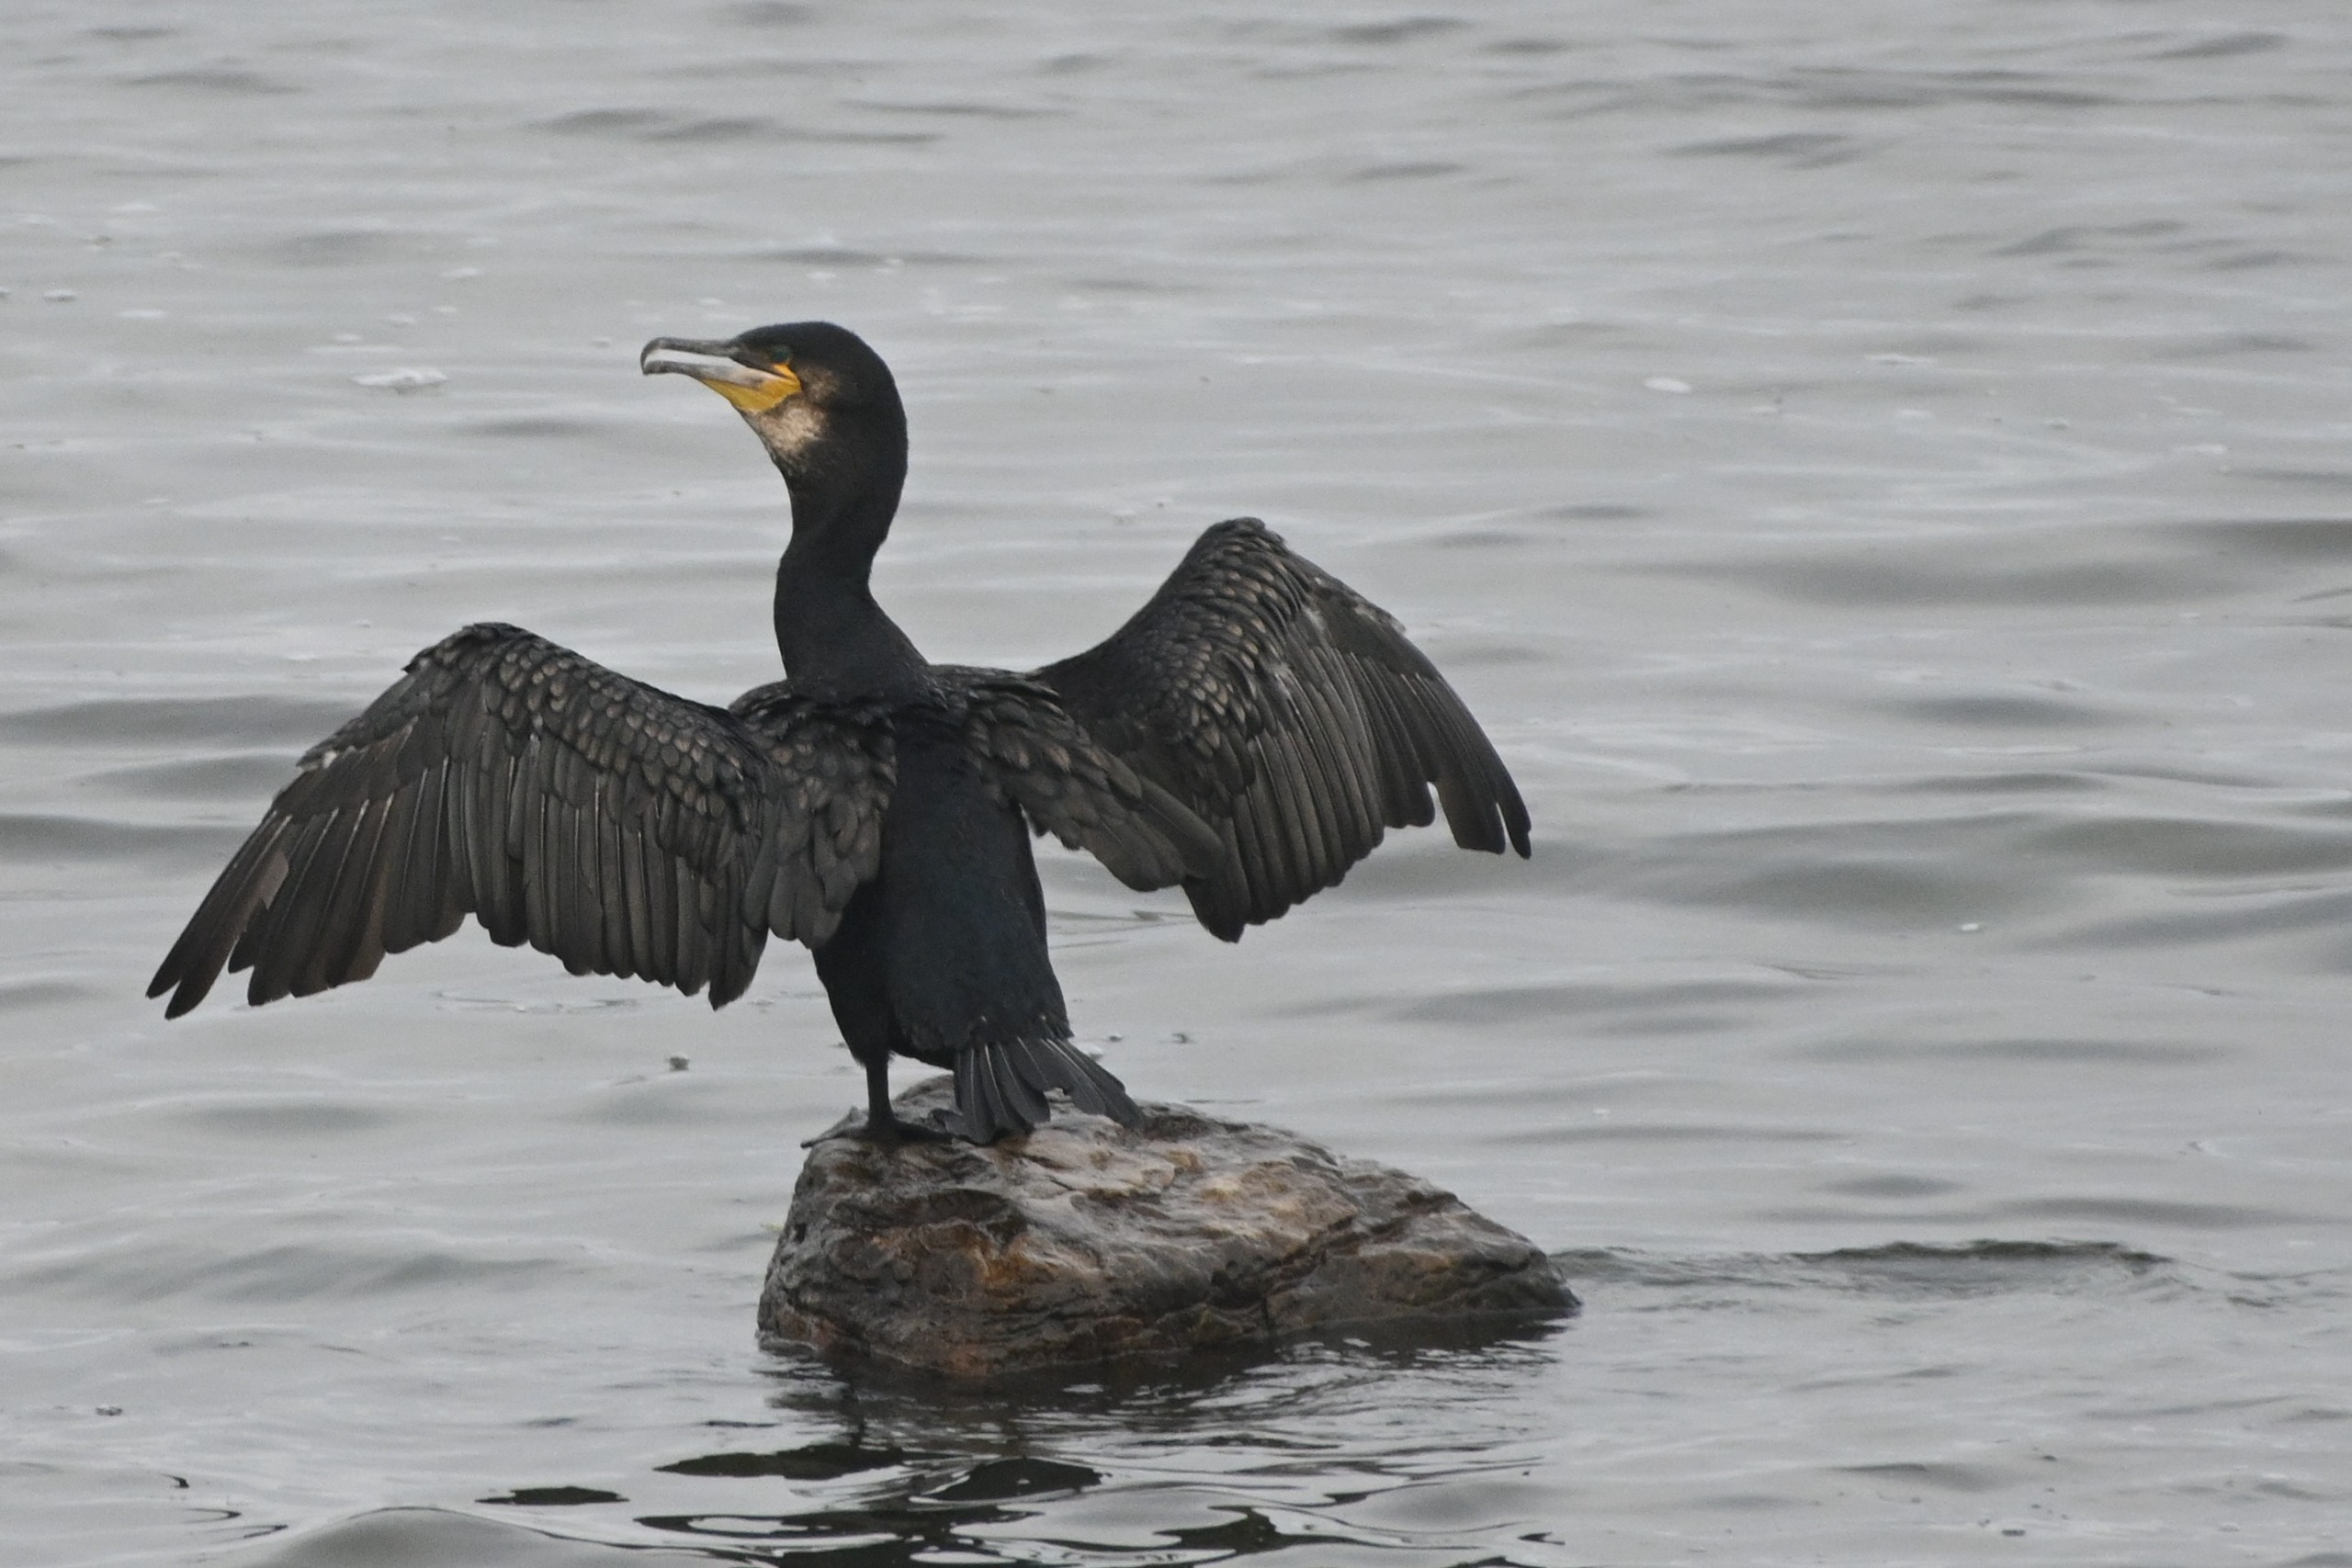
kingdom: Animalia
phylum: Chordata
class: Aves
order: Suliformes
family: Phalacrocoracidae
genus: Phalacrocorax
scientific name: Phalacrocorax carbo
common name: Skarv
